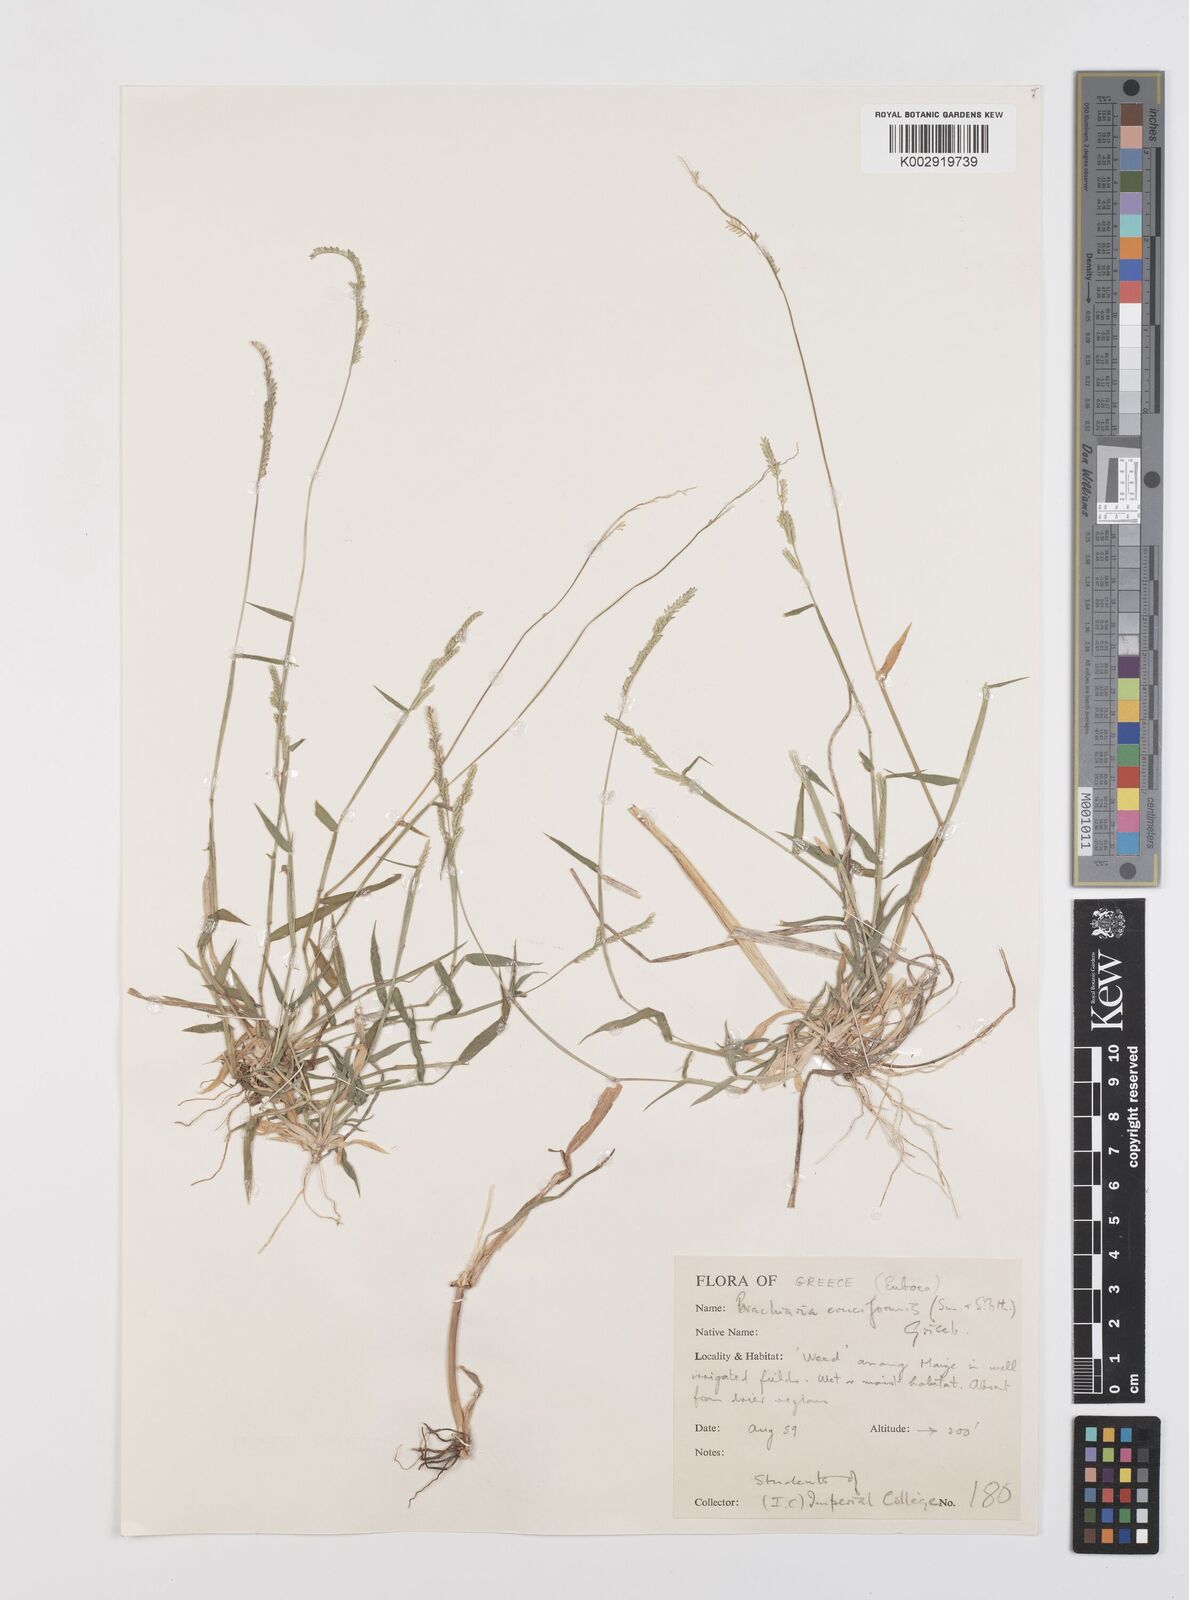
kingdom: Plantae
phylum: Tracheophyta
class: Liliopsida
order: Poales
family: Poaceae
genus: Moorochloa
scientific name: Moorochloa eruciformis
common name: Sweet signalgrass
